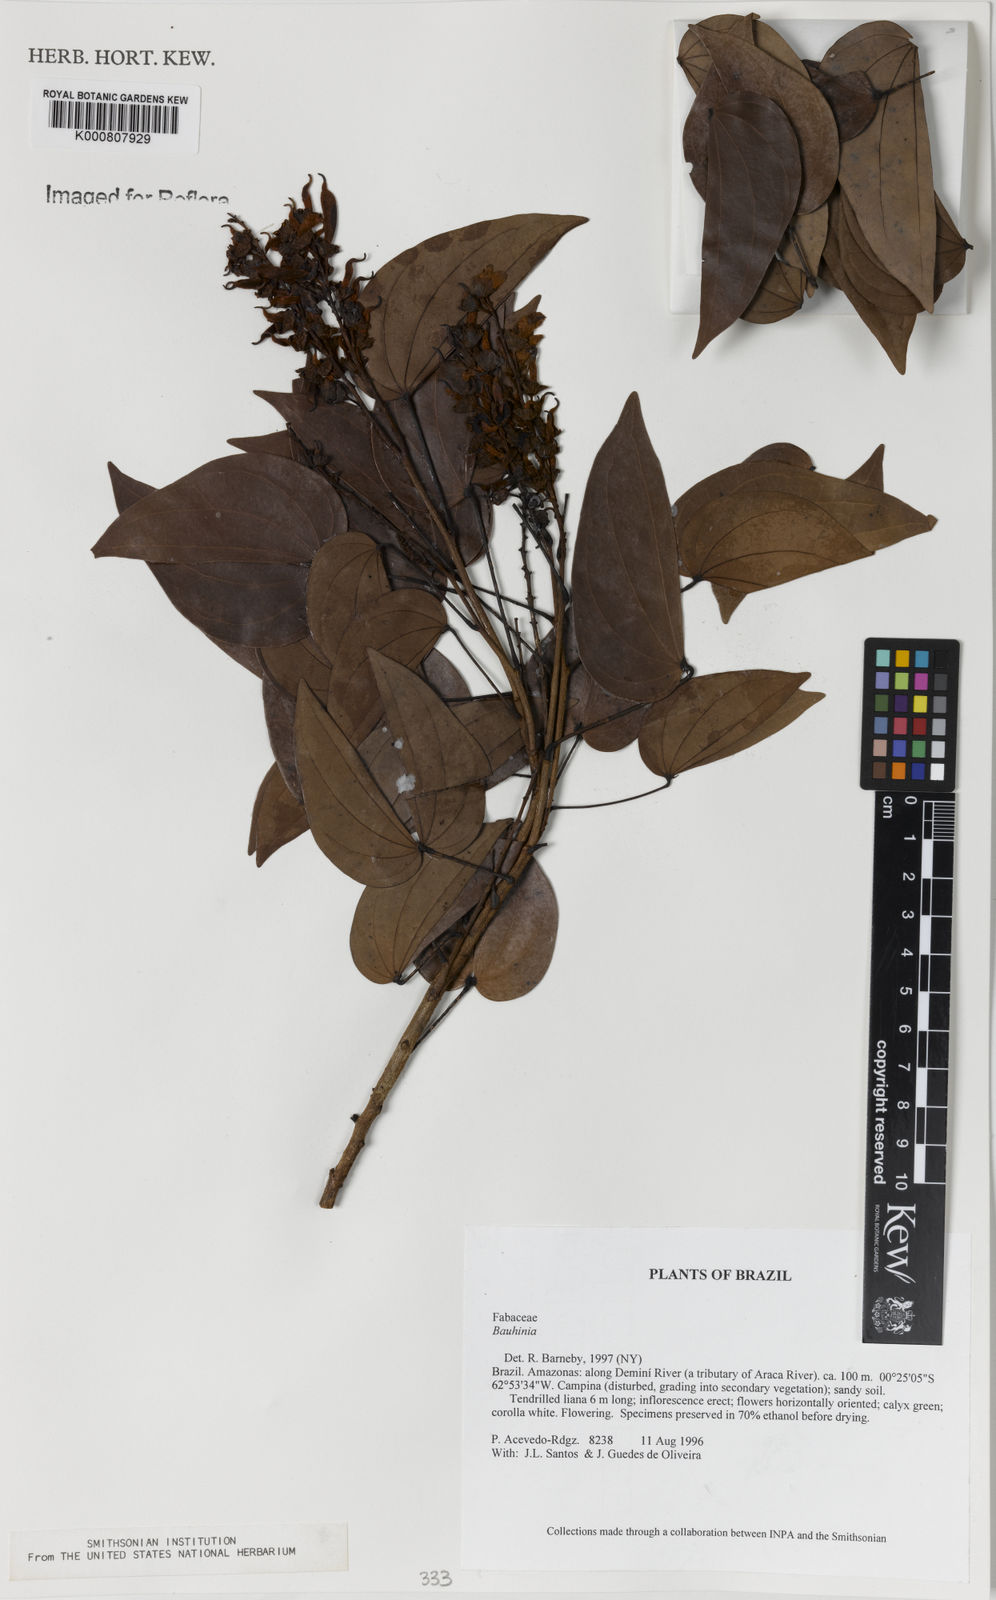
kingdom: Plantae
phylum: Tracheophyta
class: Magnoliopsida
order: Fabales
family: Fabaceae
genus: Schnella
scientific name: Schnella splendens
